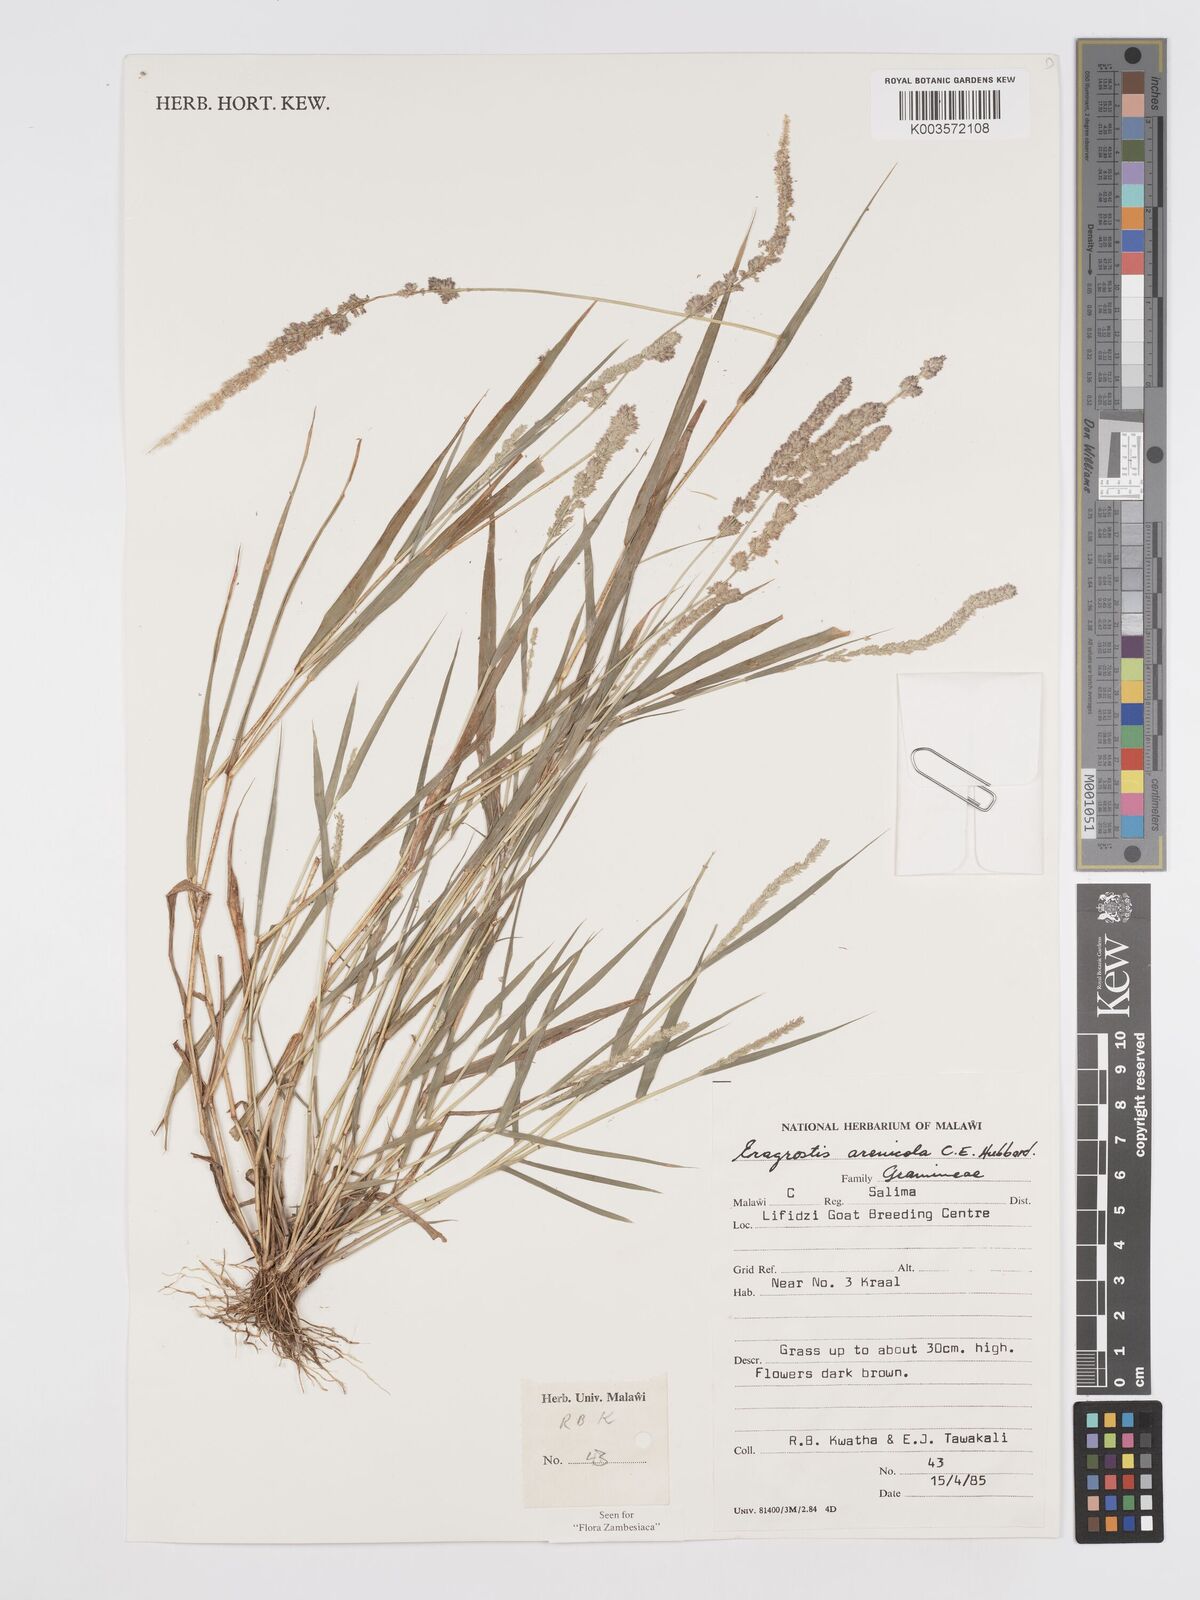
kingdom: Plantae
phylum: Tracheophyta
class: Liliopsida
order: Poales
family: Poaceae
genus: Eragrostis
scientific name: Eragrostis arenicola
